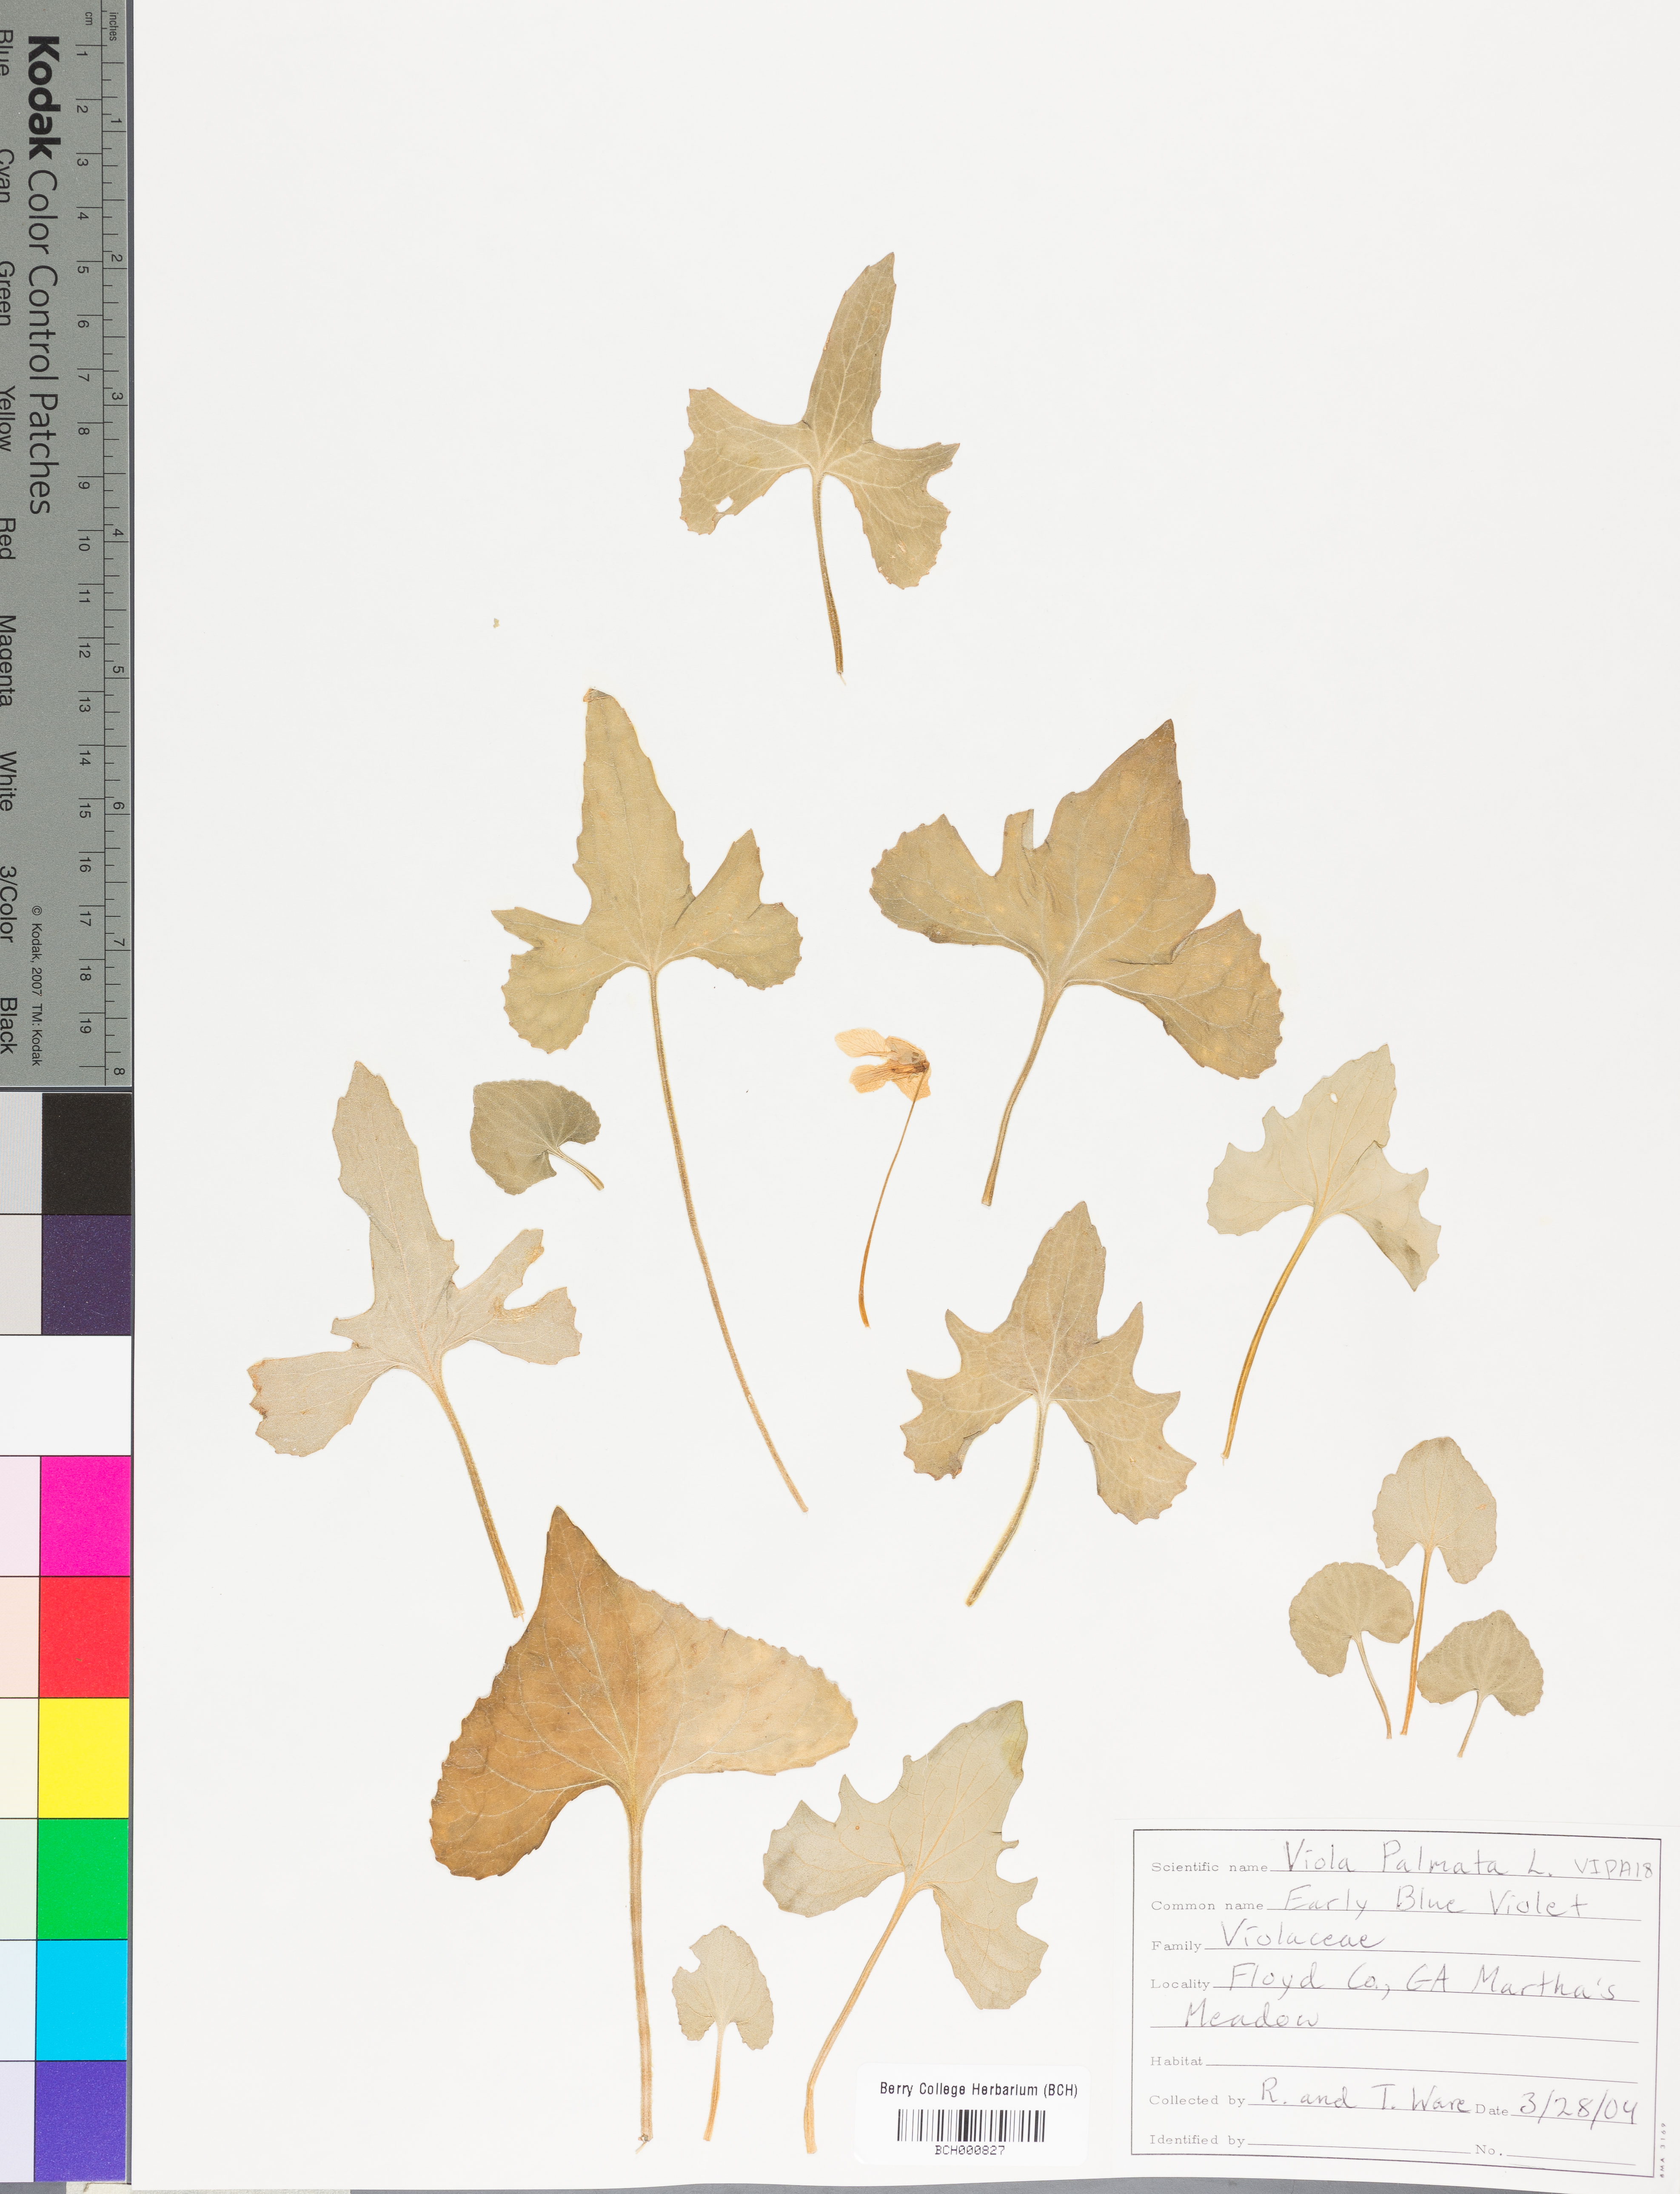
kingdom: Plantae
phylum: Tracheophyta
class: Magnoliopsida
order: Malpighiales
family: Violaceae
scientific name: Violaceae
